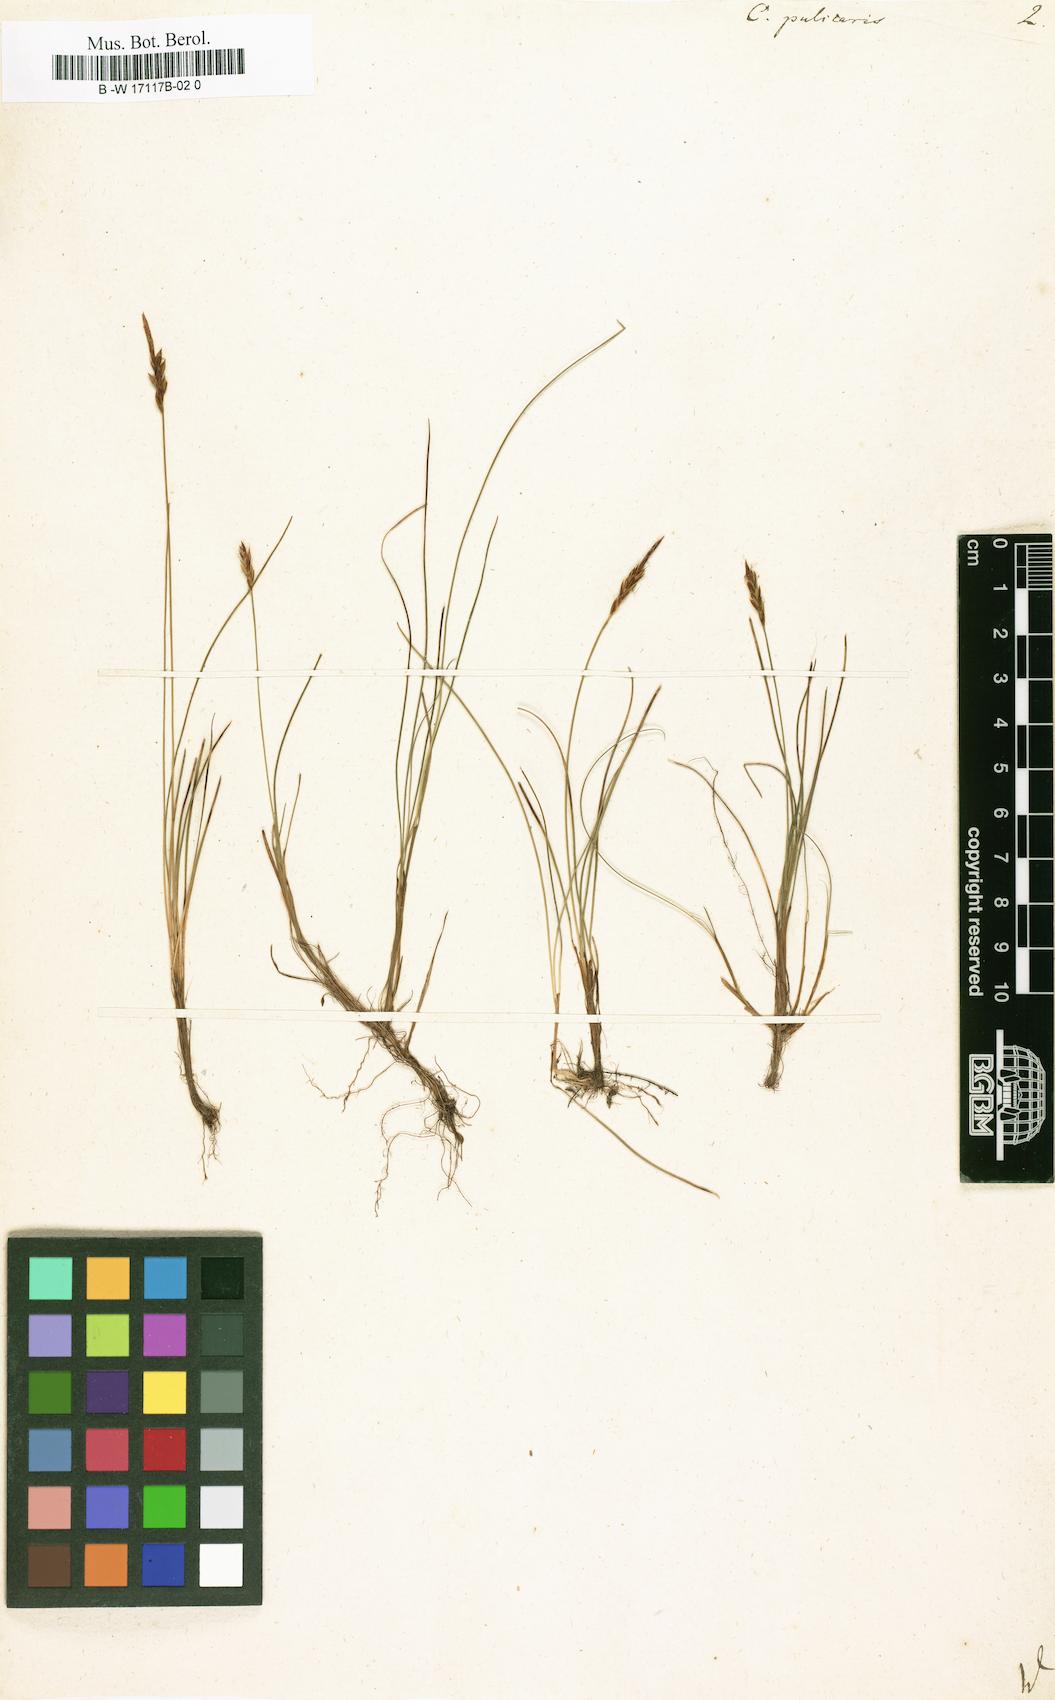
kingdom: Plantae
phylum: Tracheophyta
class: Liliopsida
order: Poales
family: Cyperaceae
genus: Carex
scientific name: Carex pulicaris
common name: Flea sedge
